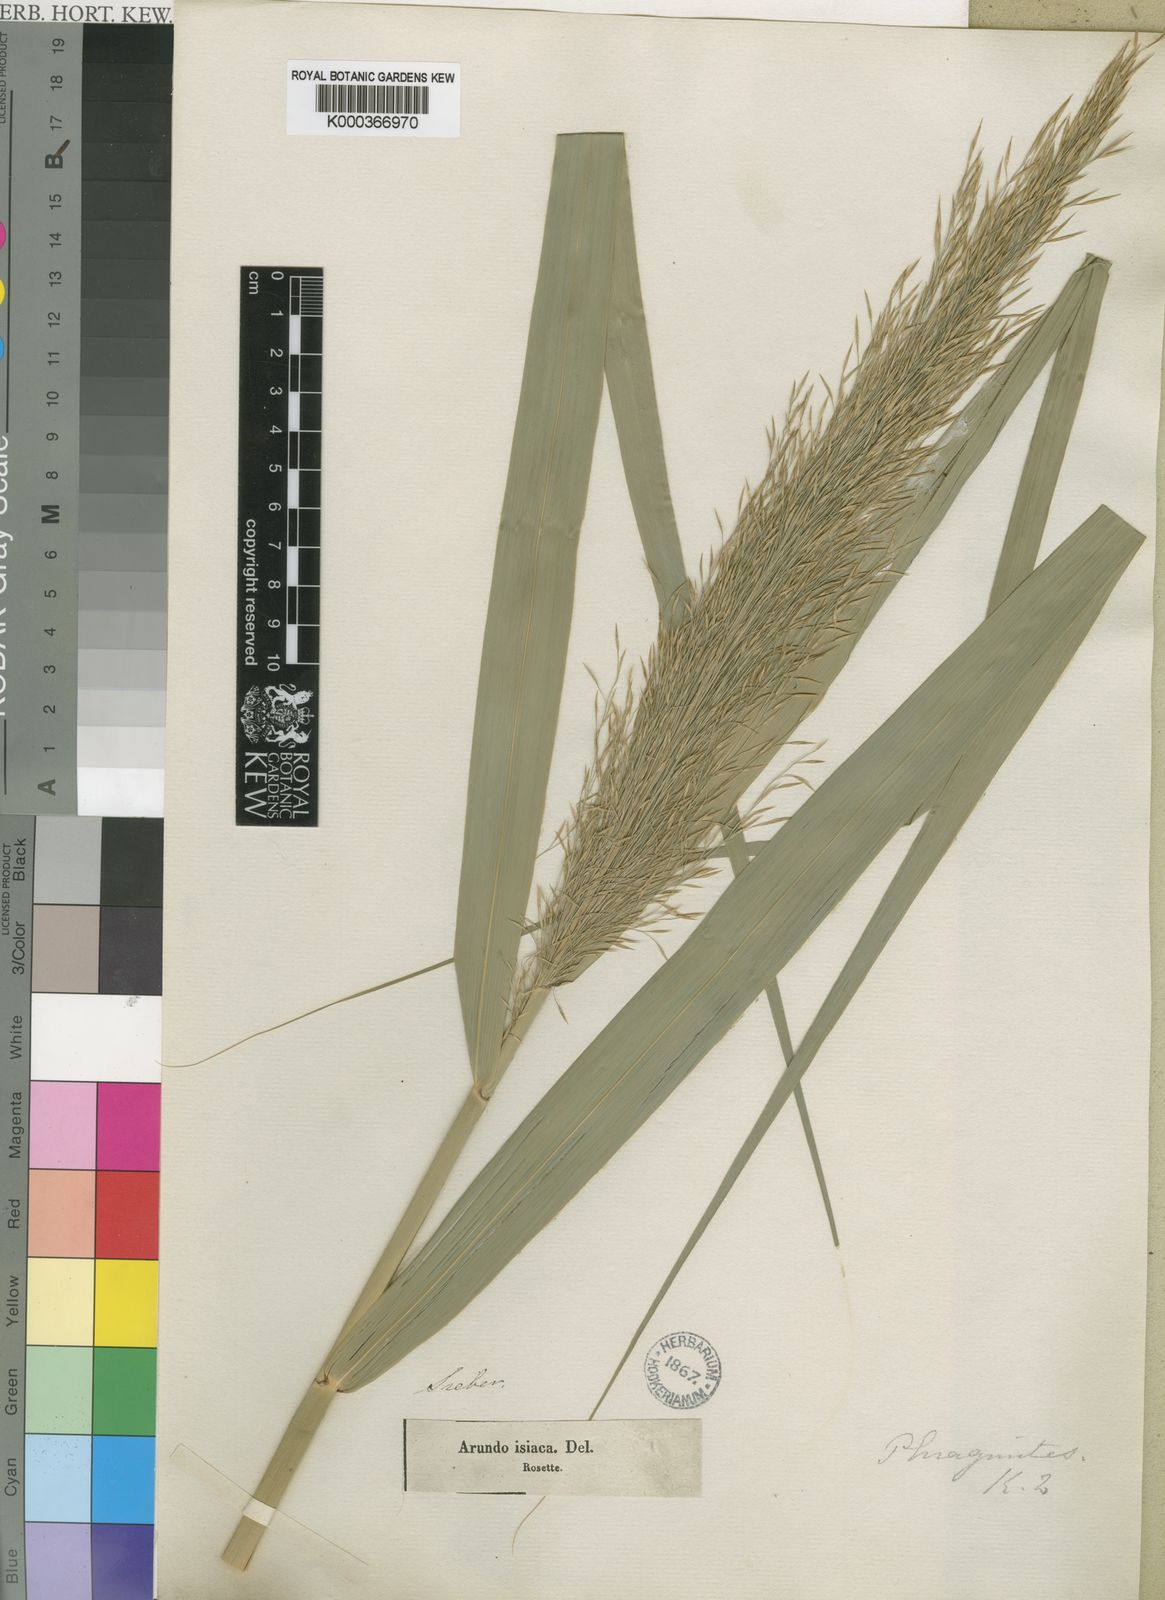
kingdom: Plantae
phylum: Tracheophyta
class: Liliopsida
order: Poales
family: Poaceae
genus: Phragmites
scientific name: Phragmites australis
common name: Common reed
